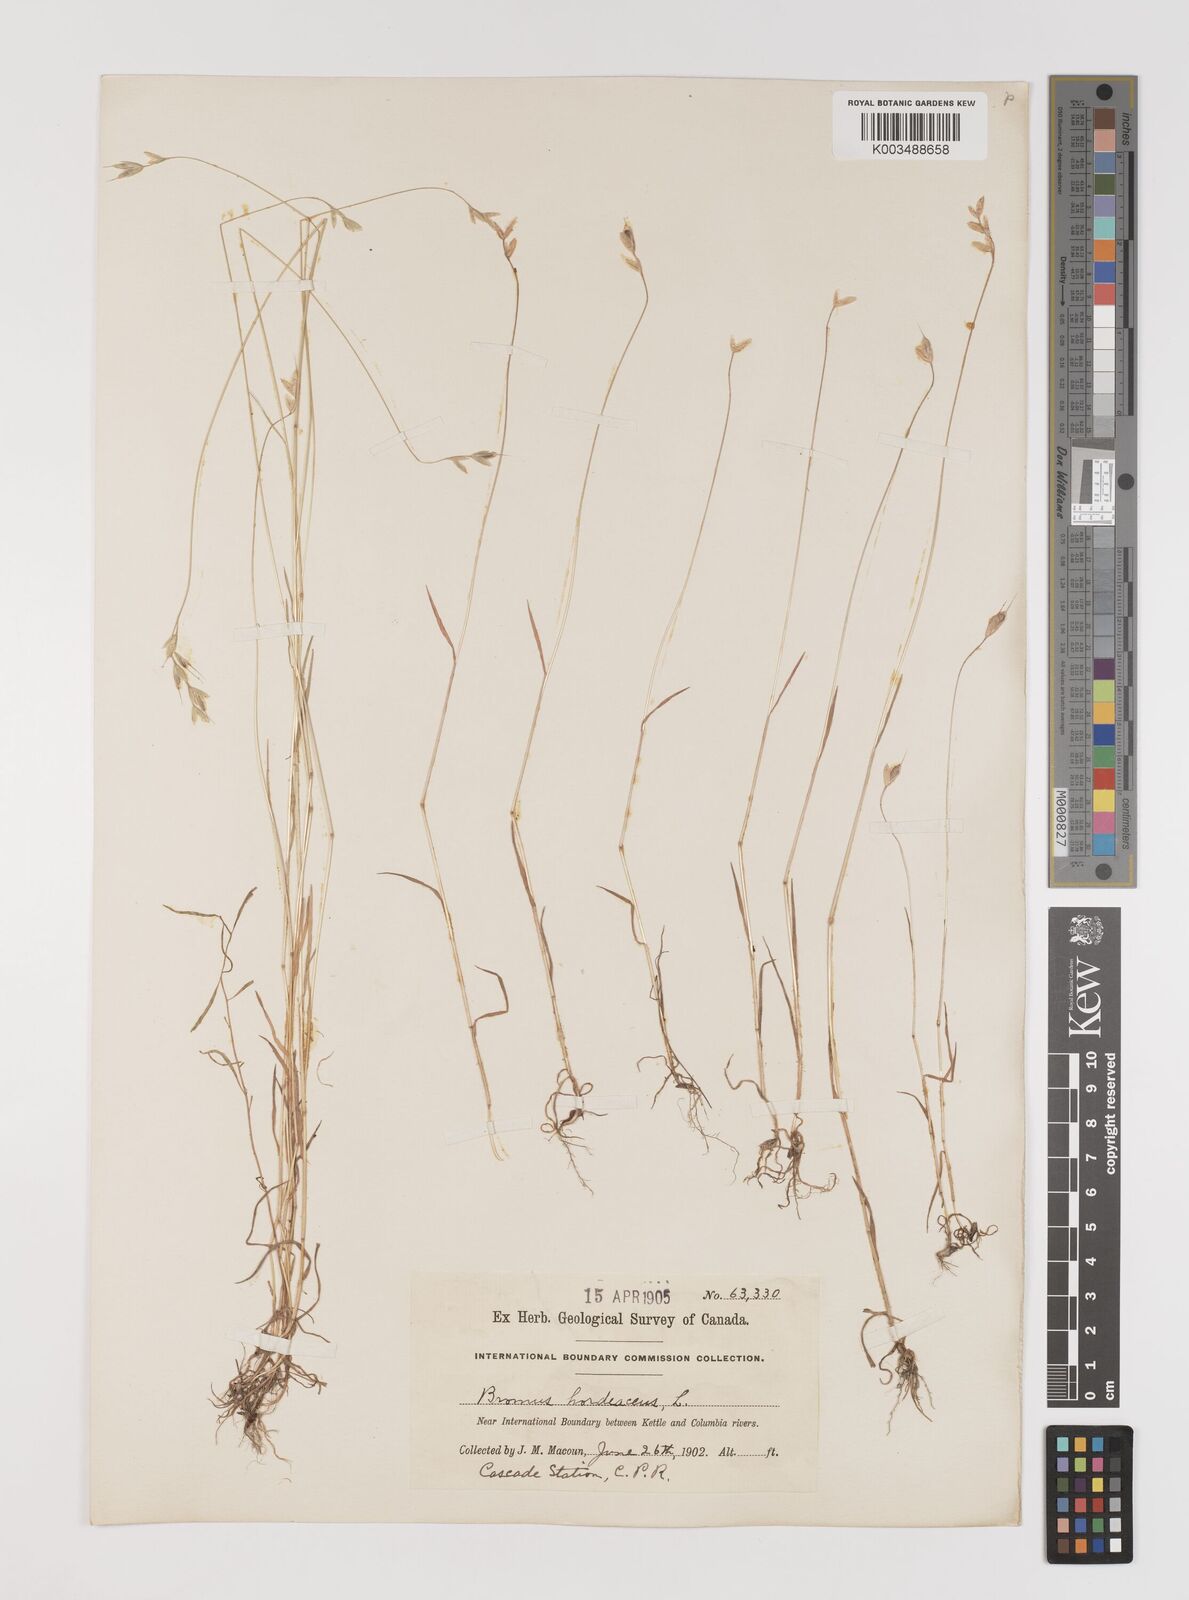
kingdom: Plantae
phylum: Tracheophyta
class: Liliopsida
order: Poales
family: Poaceae
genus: Bromus
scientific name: Bromus hordeaceus
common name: Soft brome
